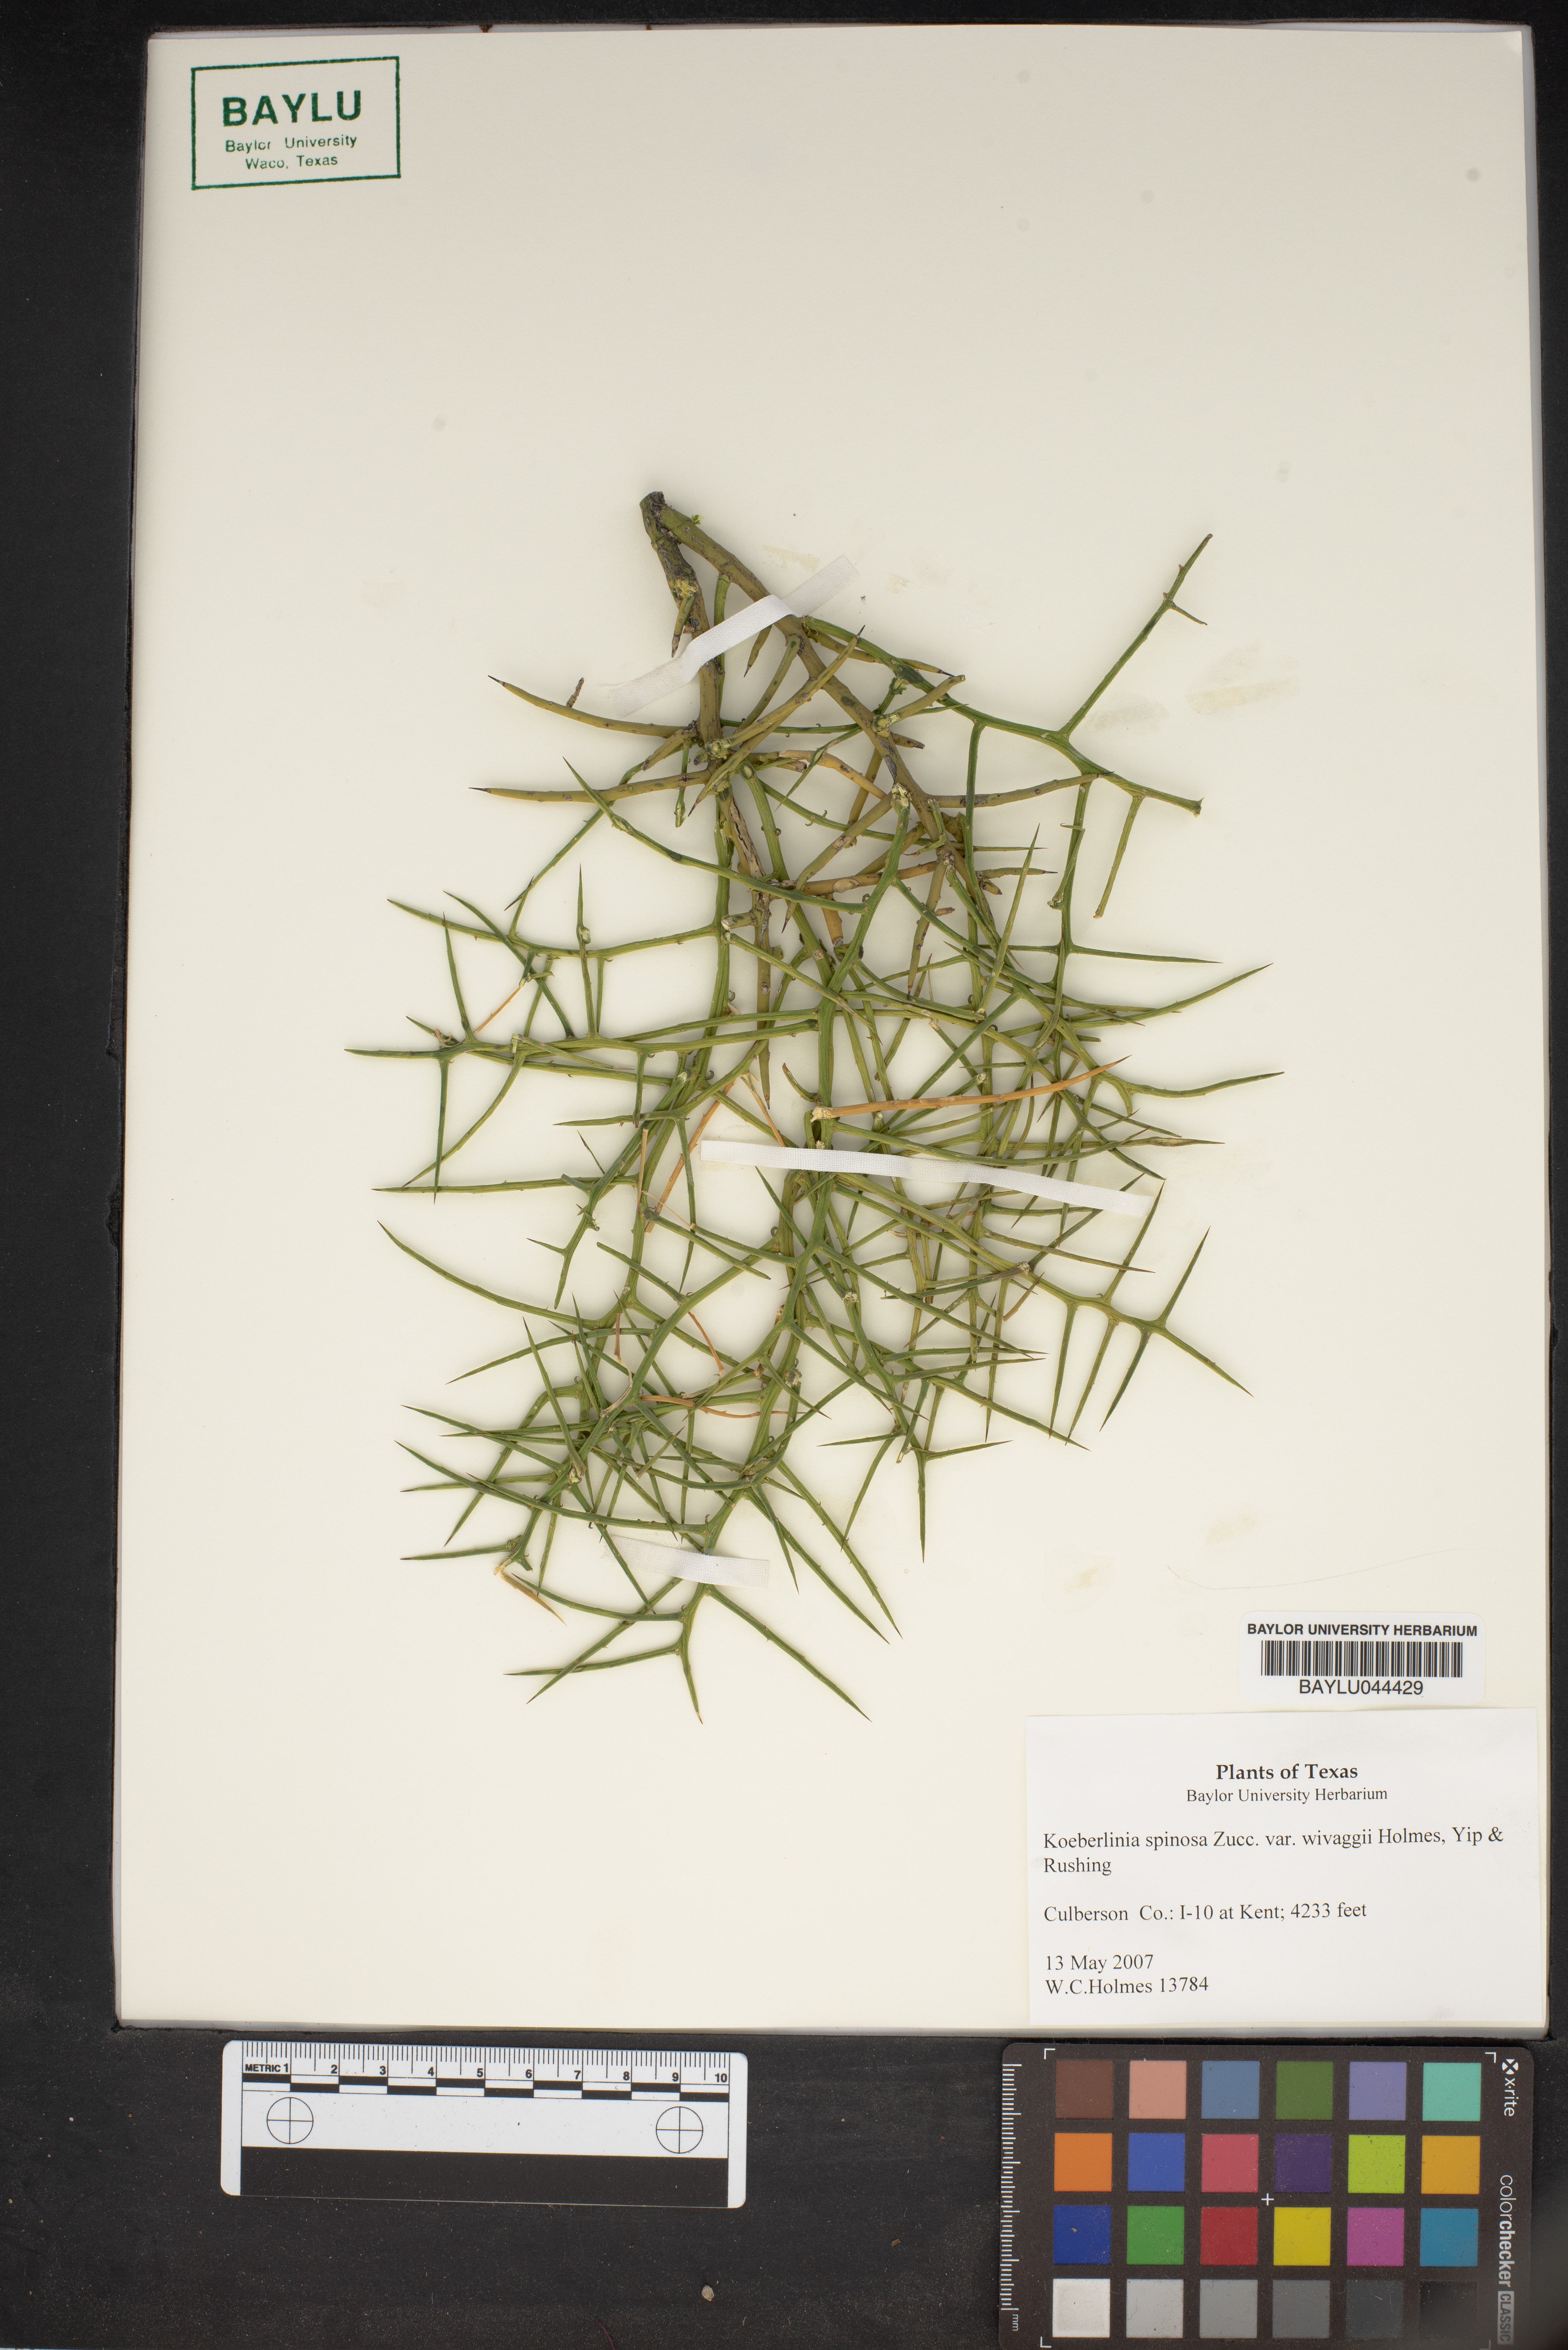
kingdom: Plantae
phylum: Tracheophyta
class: Magnoliopsida
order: Brassicales
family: Koeberliniaceae
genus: Koeberlinia
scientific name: Koeberlinia spinosa
